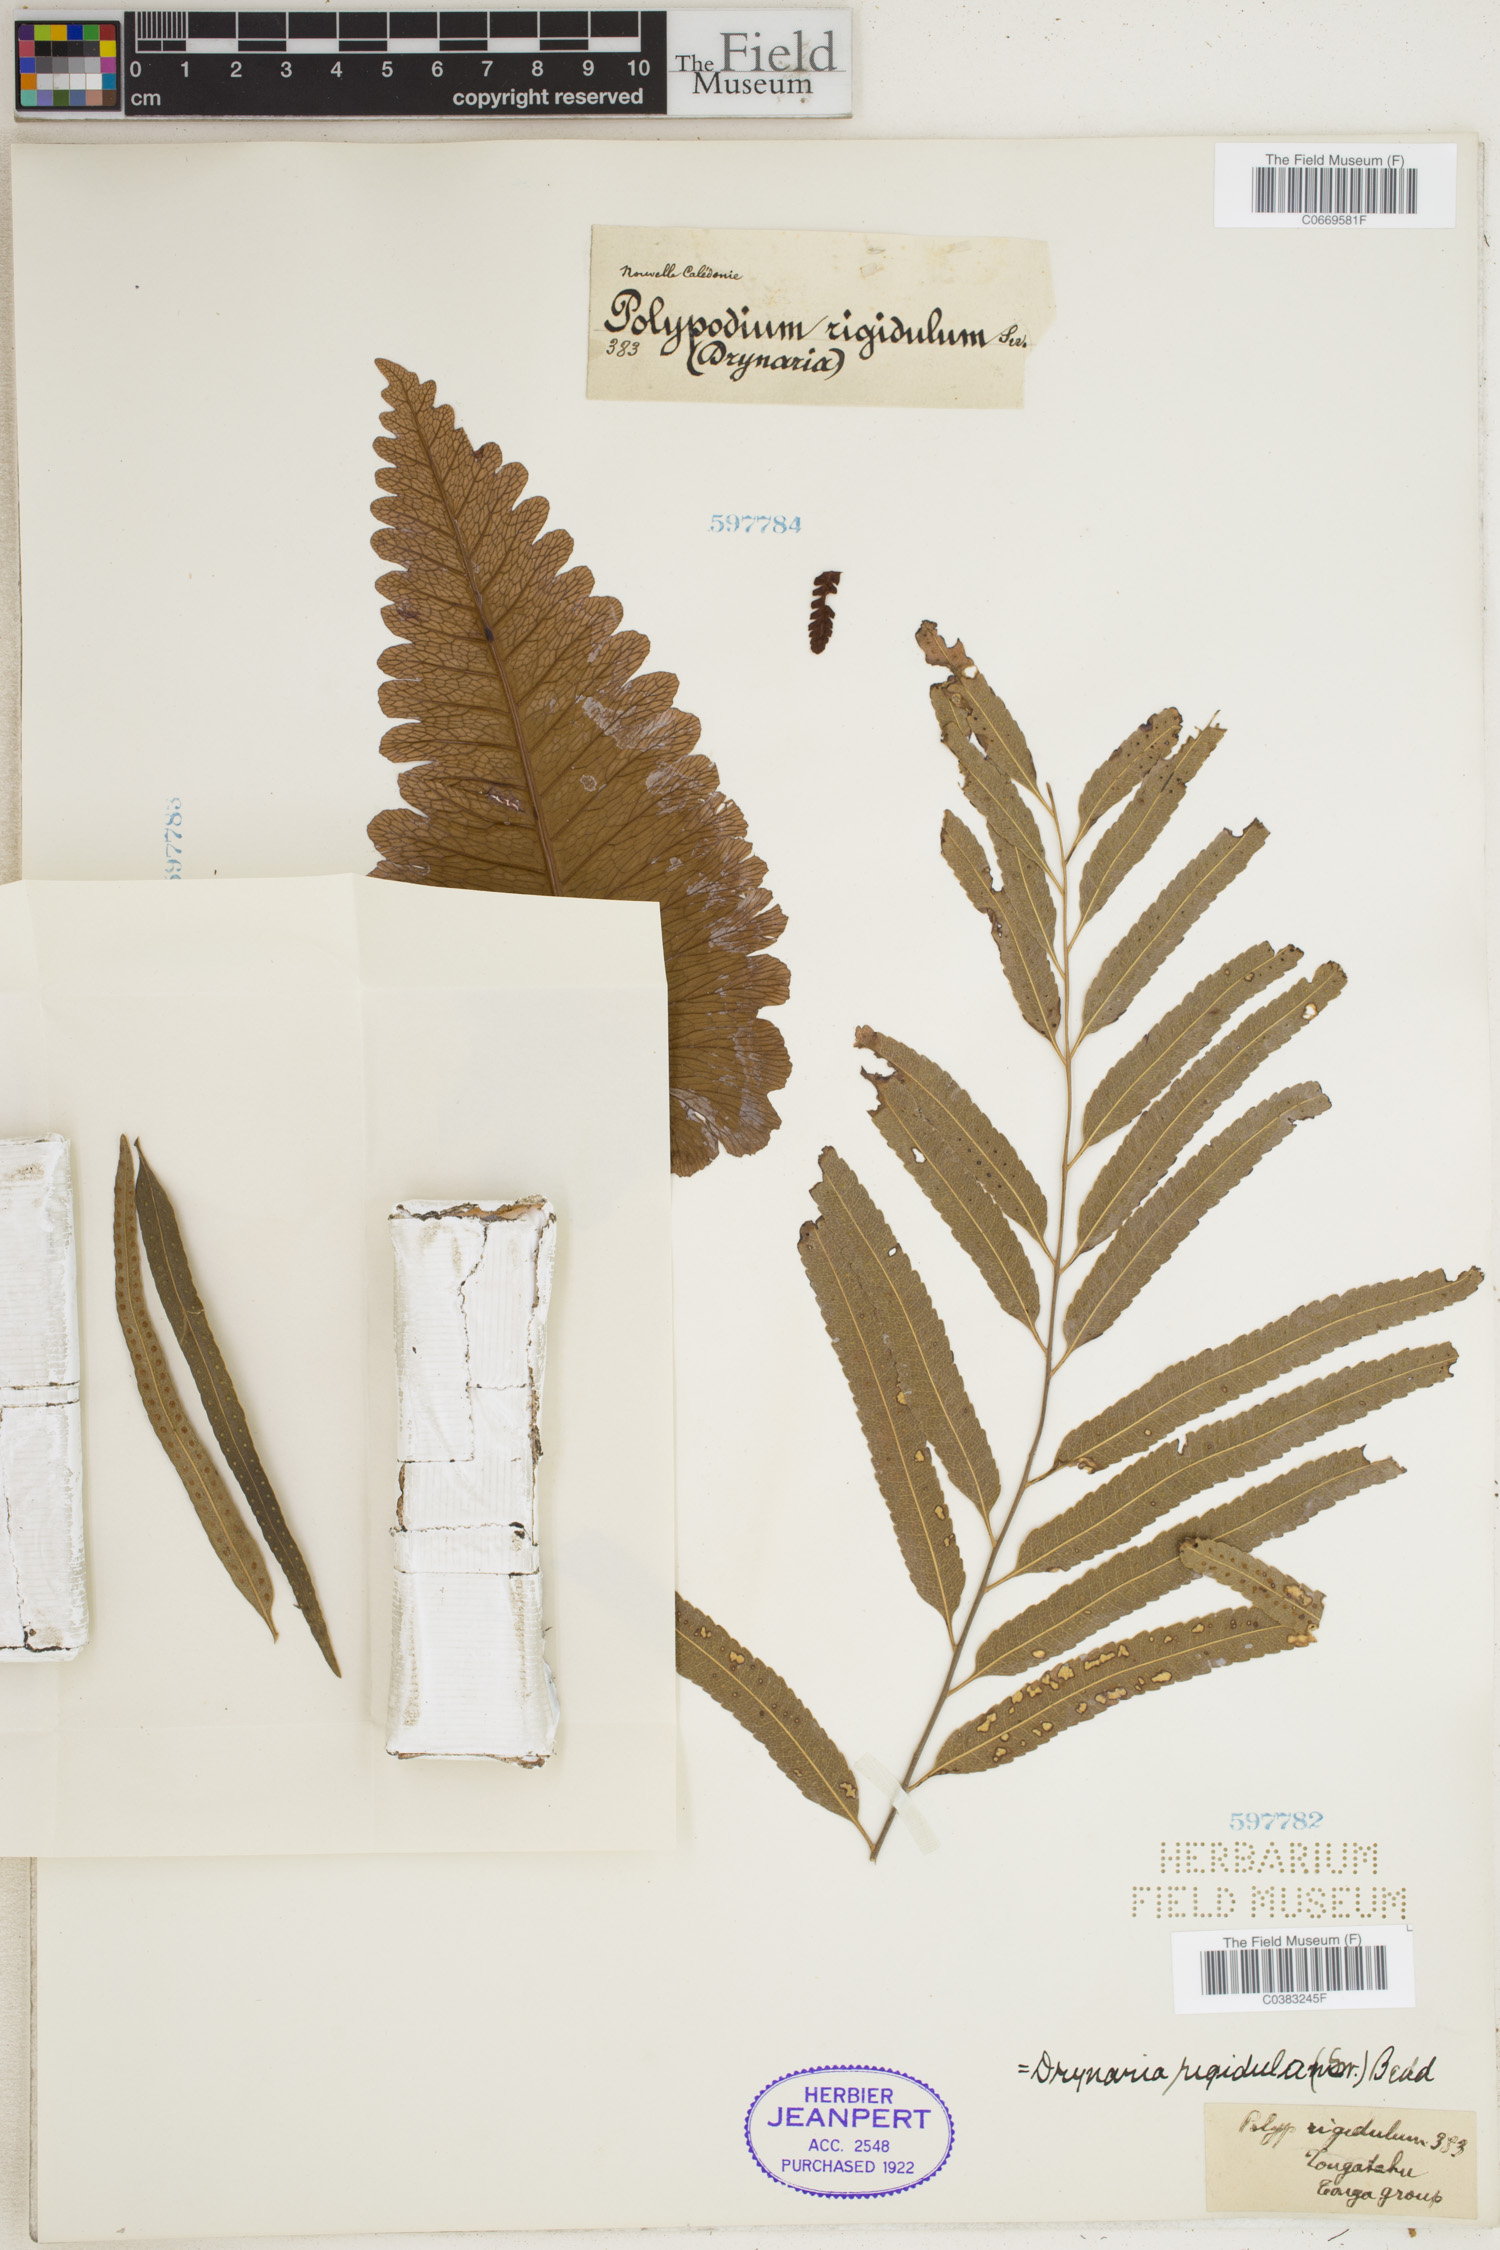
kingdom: Plantae
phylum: Tracheophyta
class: Polypodiopsida
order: Polypodiales
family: Polypodiaceae
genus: Drynaria
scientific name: Drynaria rigidula
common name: Basket fern
